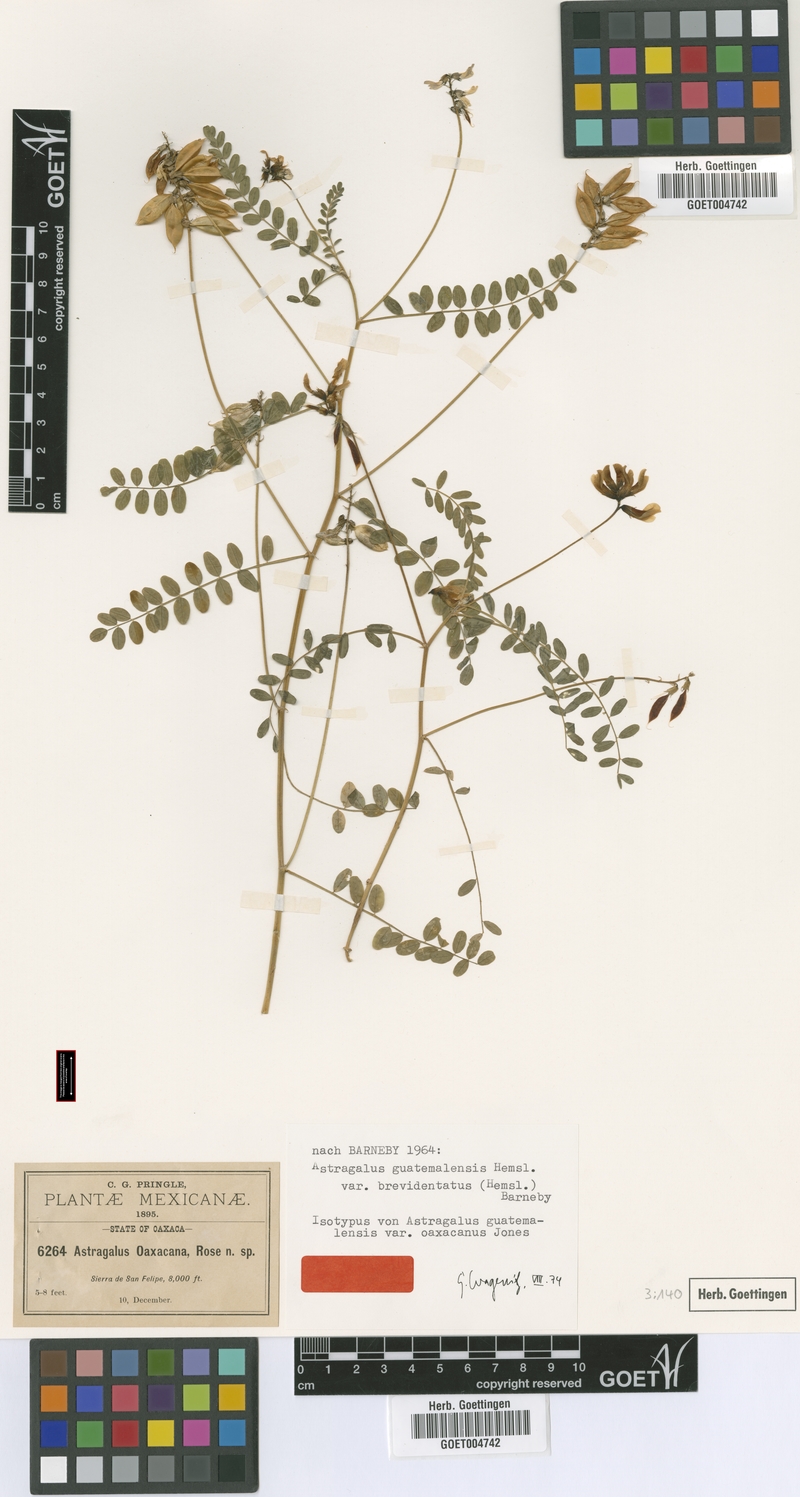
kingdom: Plantae
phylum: Tracheophyta
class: Magnoliopsida
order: Fabales
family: Fabaceae
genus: Astragalus
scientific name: Astragalus guatemalensis
